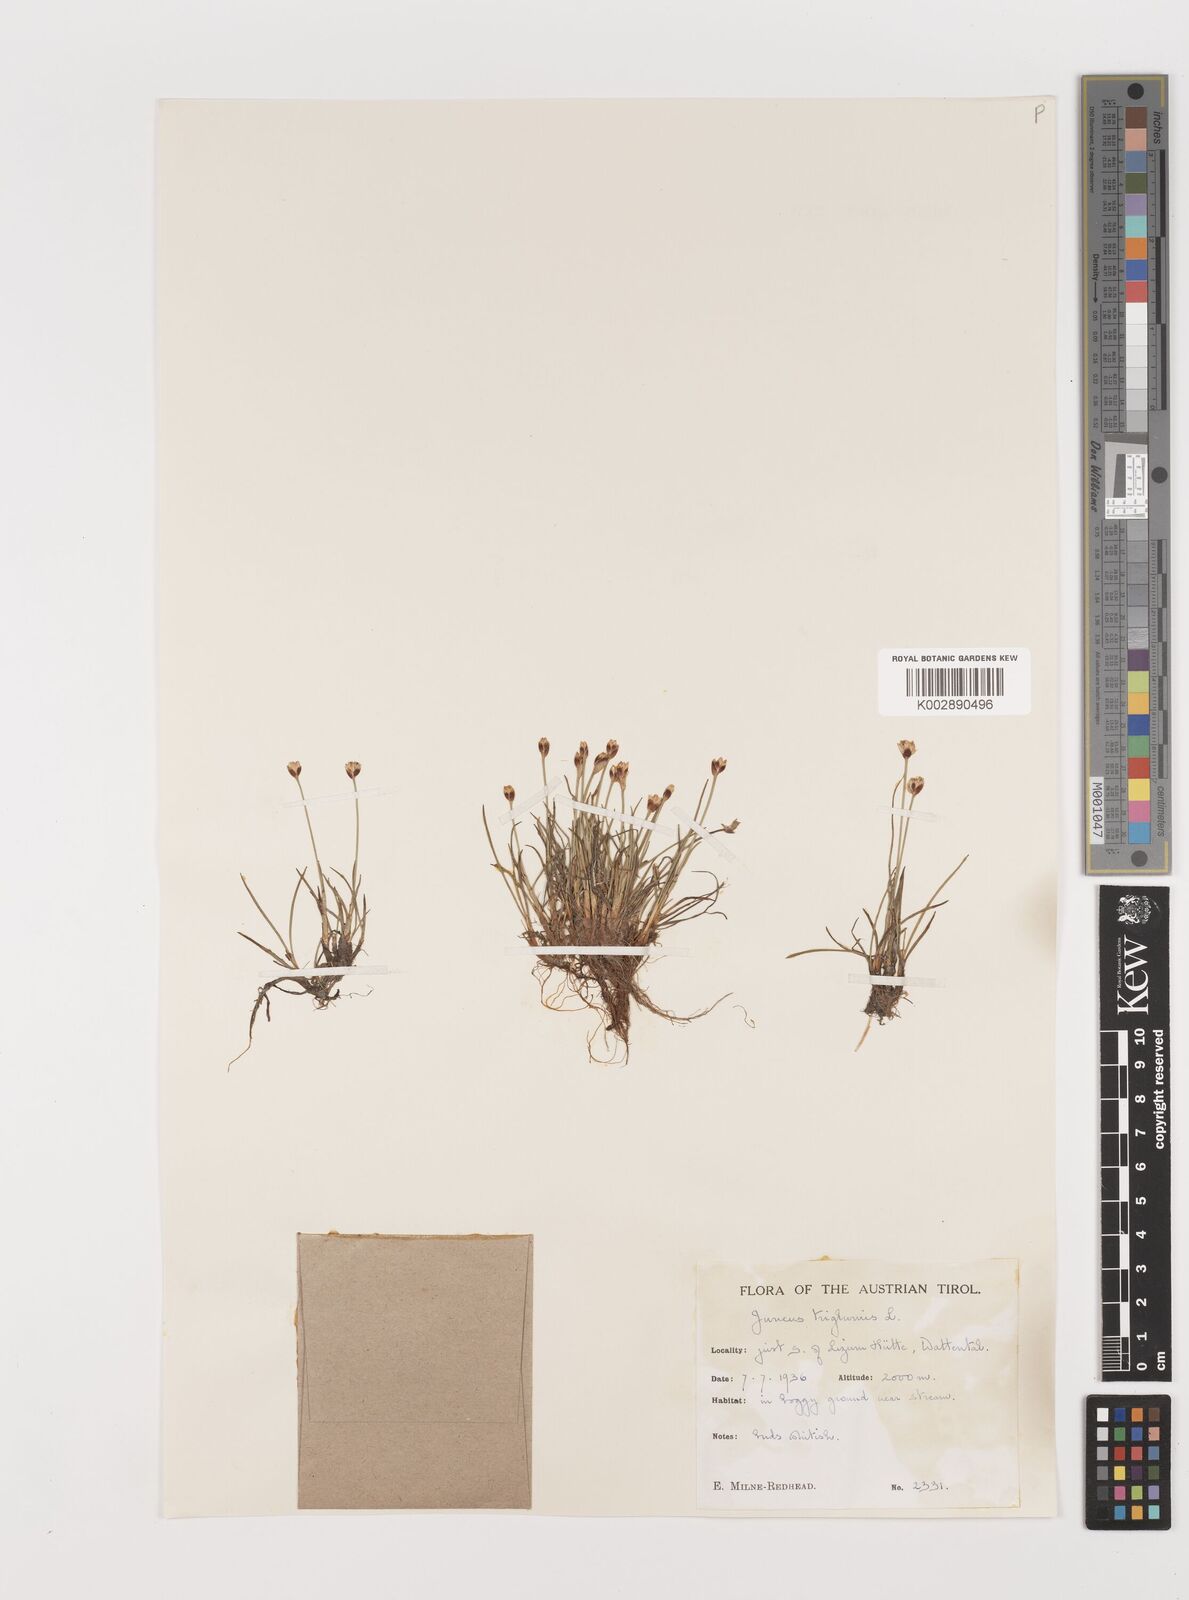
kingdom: Plantae
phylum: Tracheophyta
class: Liliopsida
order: Poales
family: Juncaceae
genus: Juncus
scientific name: Juncus triglumis
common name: Three-flowered rush
